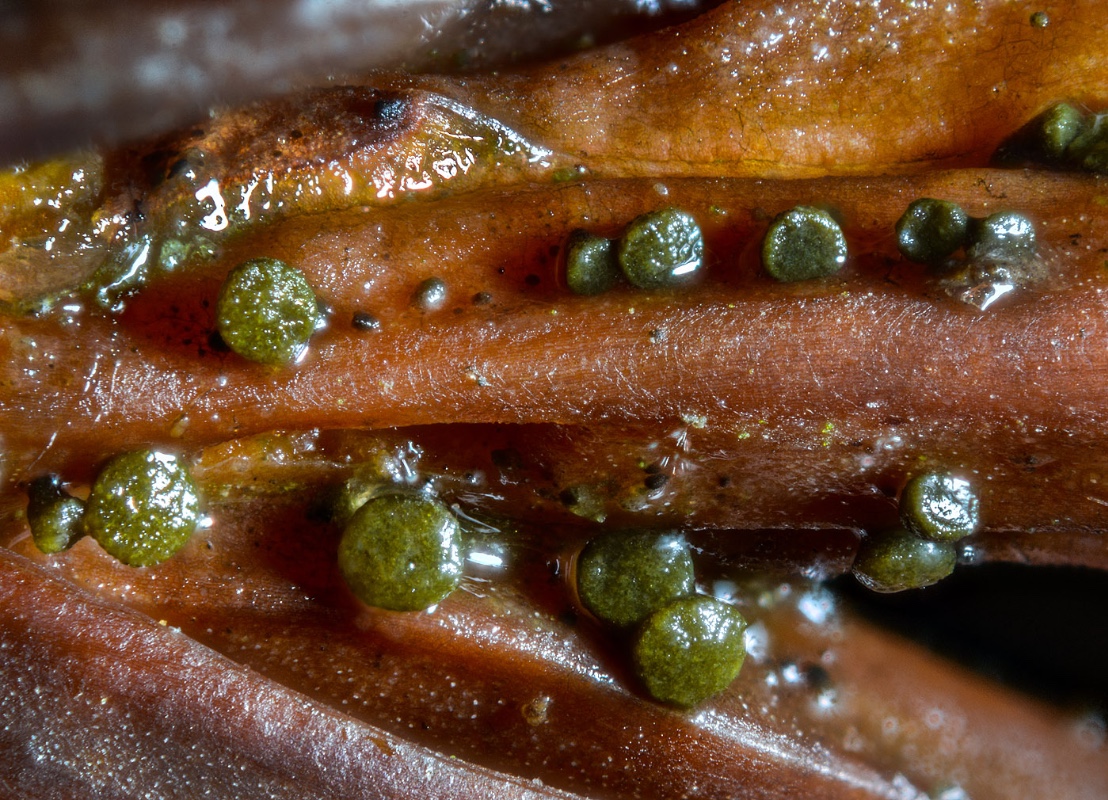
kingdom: Fungi
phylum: Ascomycota
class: Leotiomycetes
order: Helotiales
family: Gelatinodiscaceae
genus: Chloroscypha
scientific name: Chloroscypha seaveri
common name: kortstilket cypresskive
